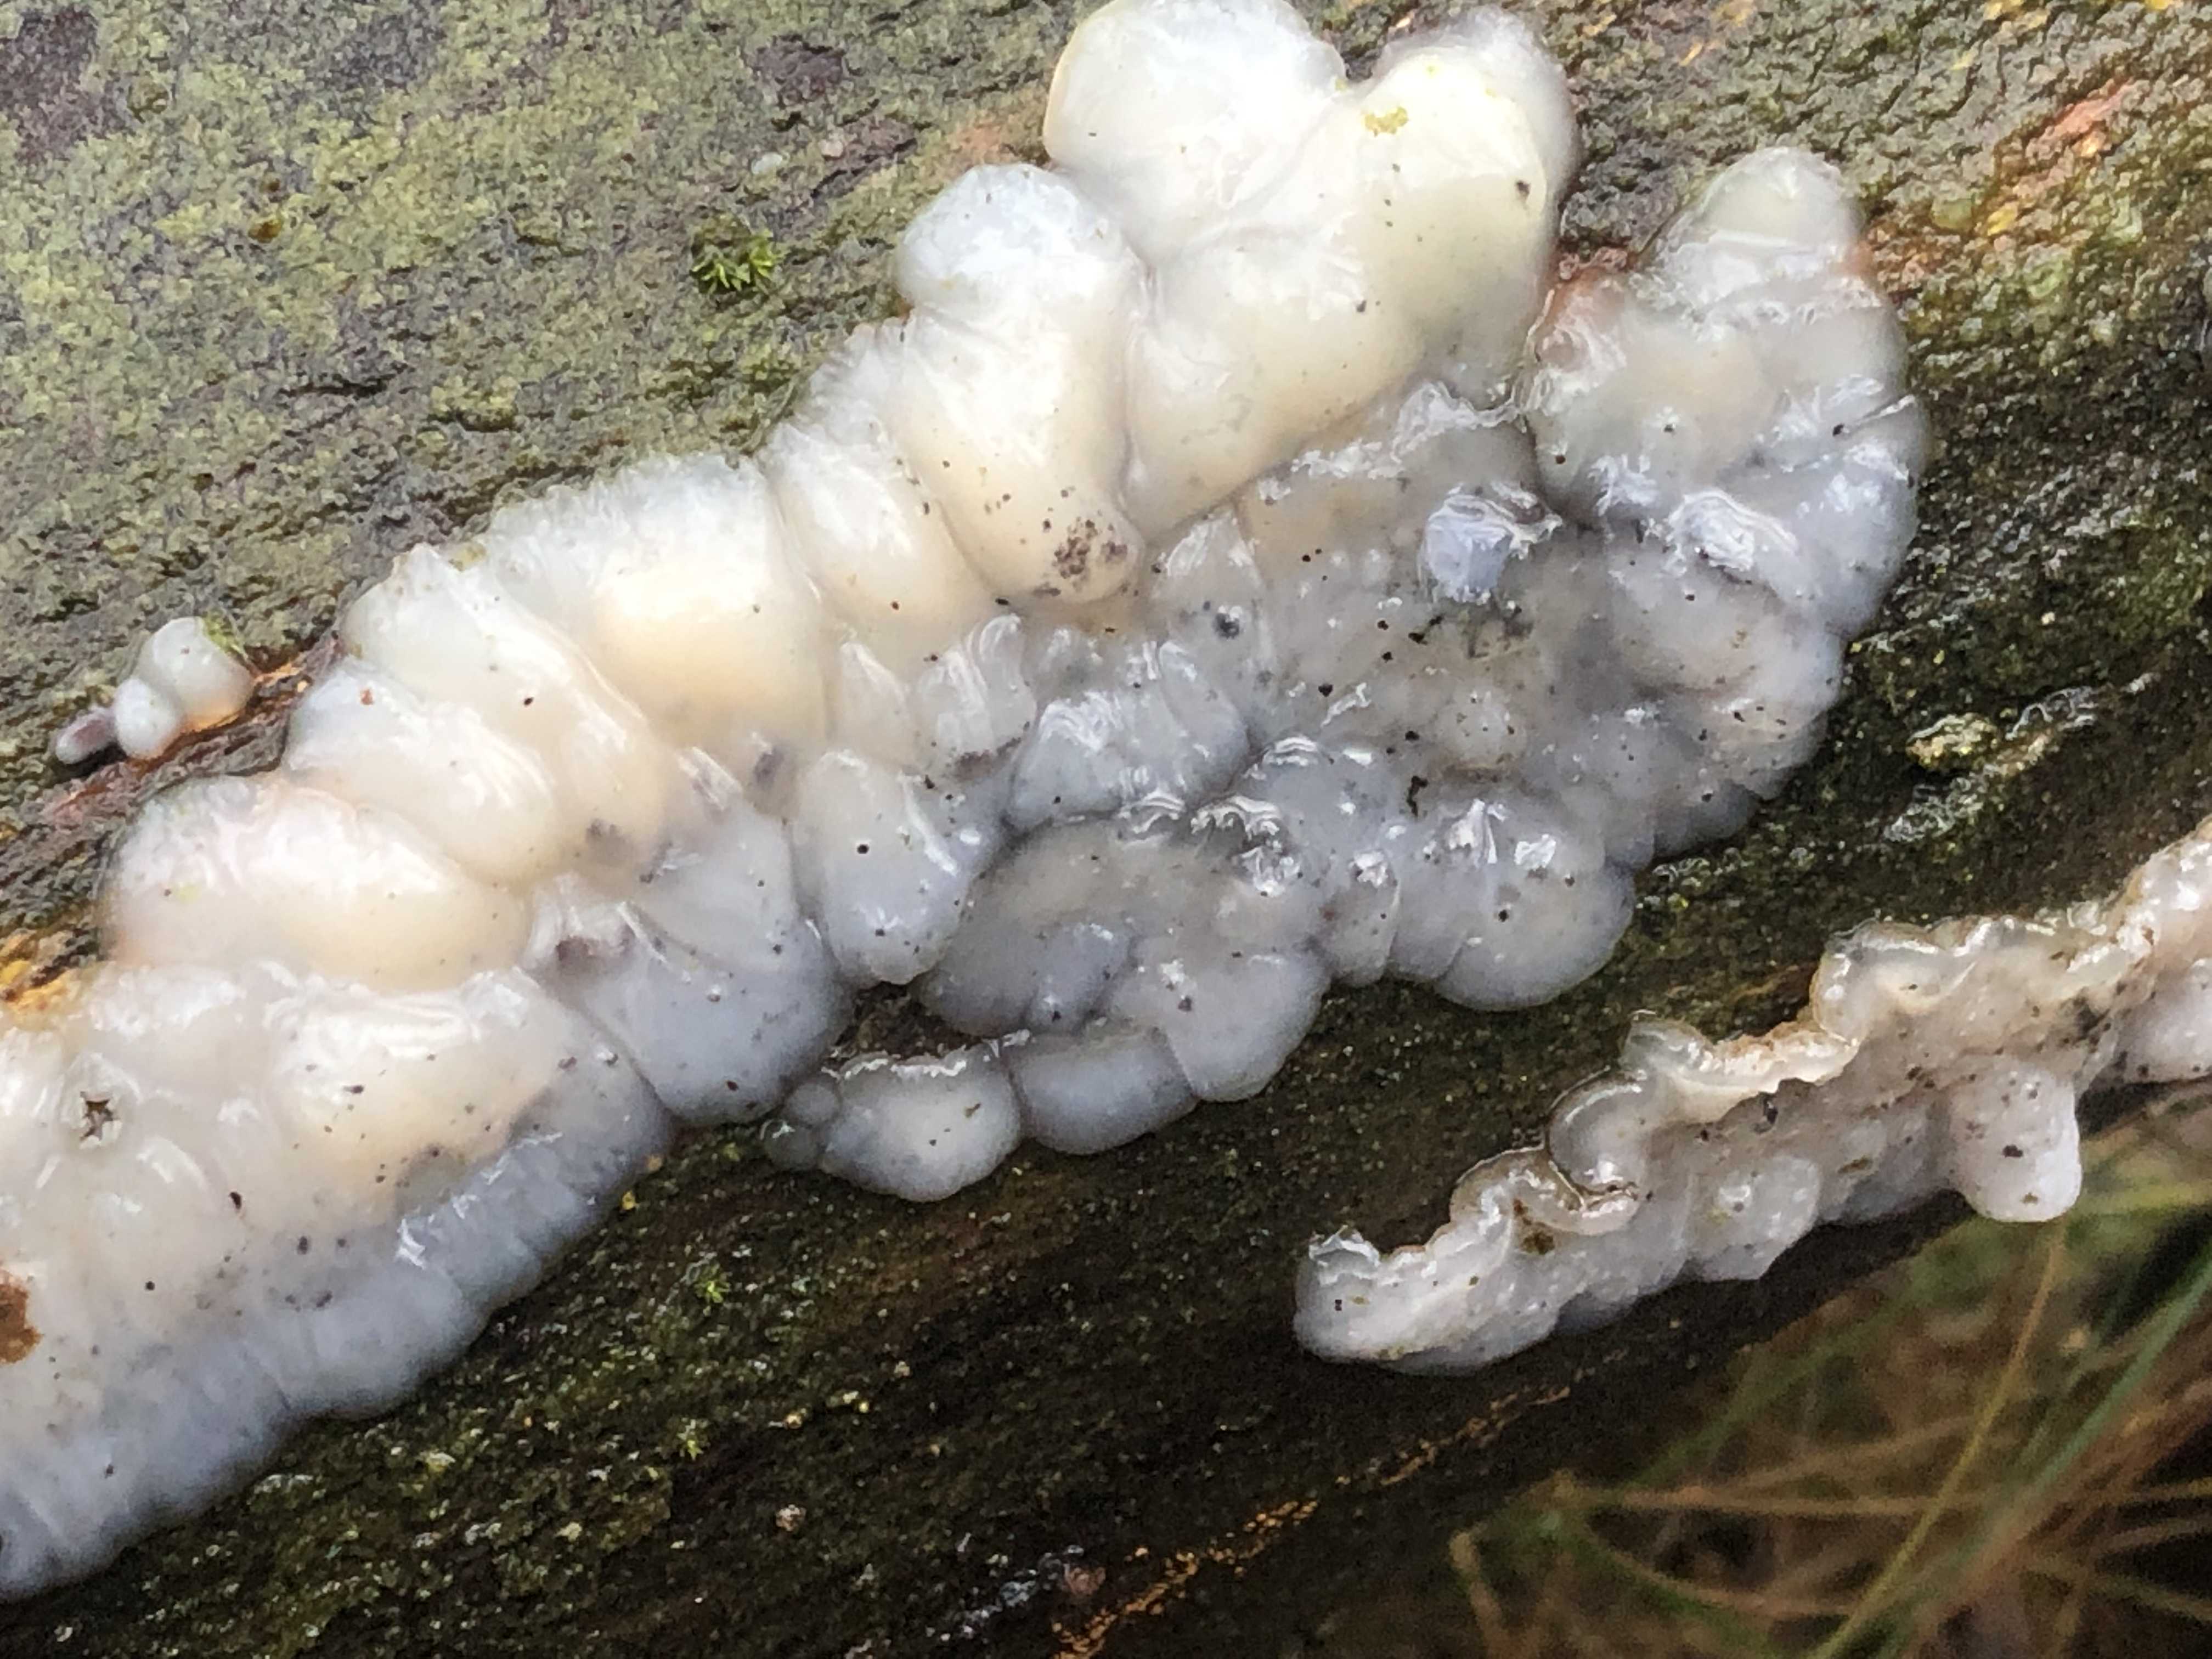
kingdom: Fungi
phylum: Basidiomycota
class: Agaricomycetes
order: Auriculariales
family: Auriculariaceae
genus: Exidia
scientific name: Exidia thuretiana
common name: hvidlig bævretop
